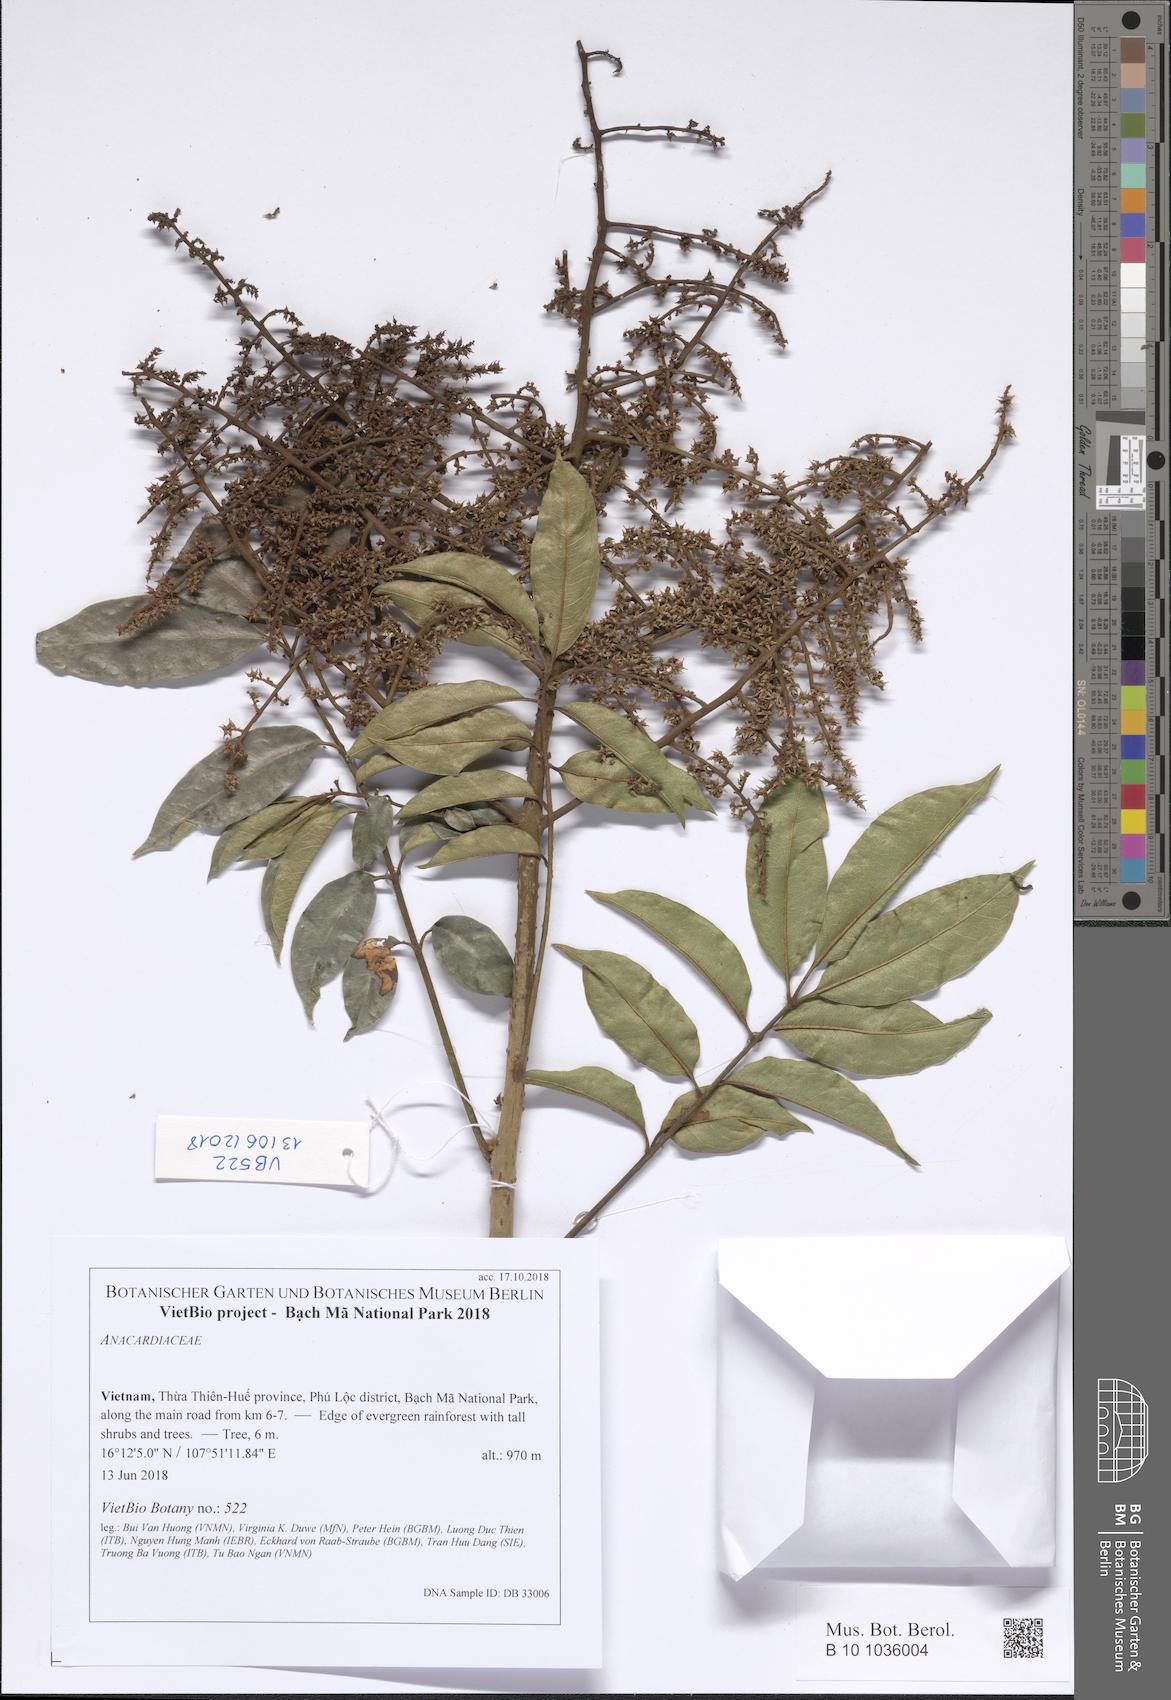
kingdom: Plantae
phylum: Tracheophyta
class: Magnoliopsida
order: Sapindales
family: Anacardiaceae
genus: Allospondias
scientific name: Allospondias lakonensis
